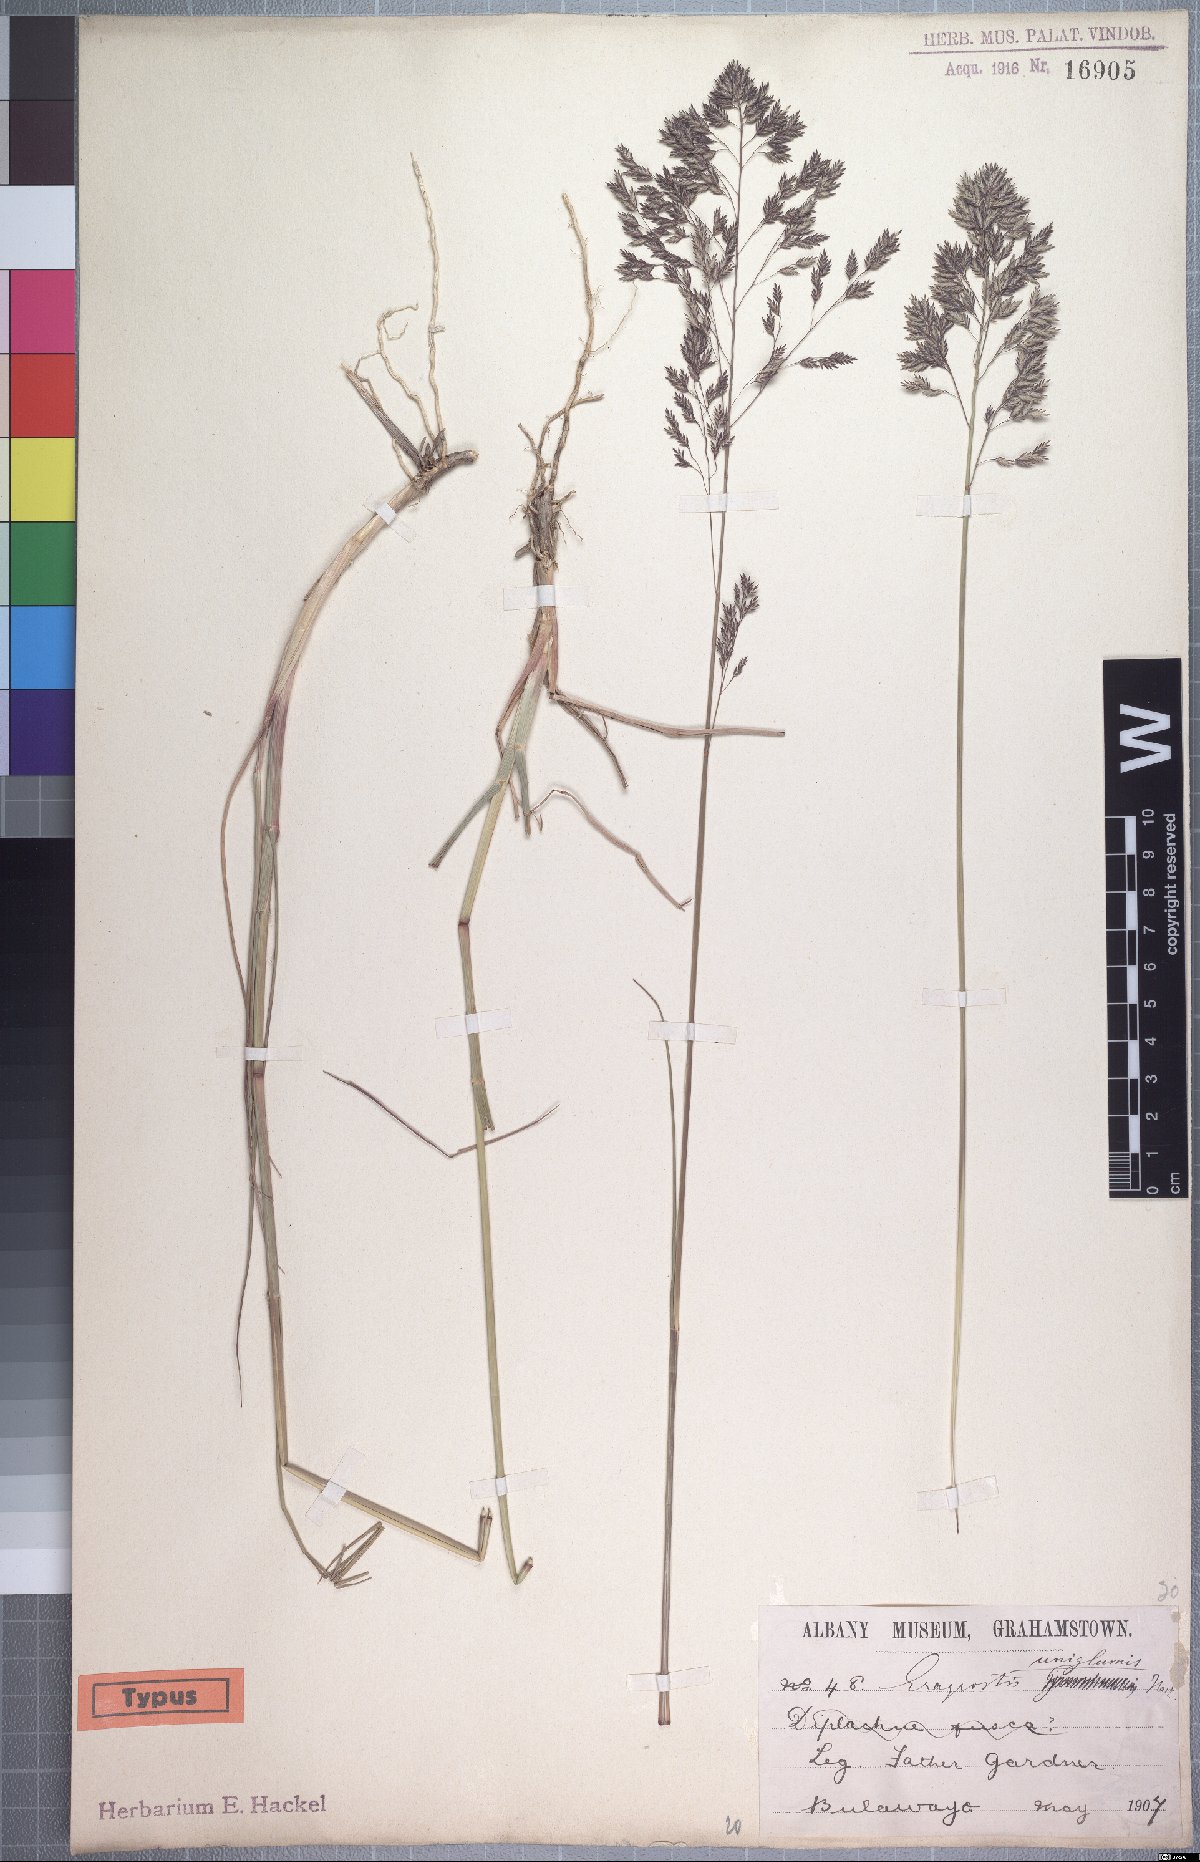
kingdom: Plantae
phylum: Tracheophyta
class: Liliopsida
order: Poales
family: Poaceae
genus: Eragrostis
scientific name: Eragrostis hierniana
